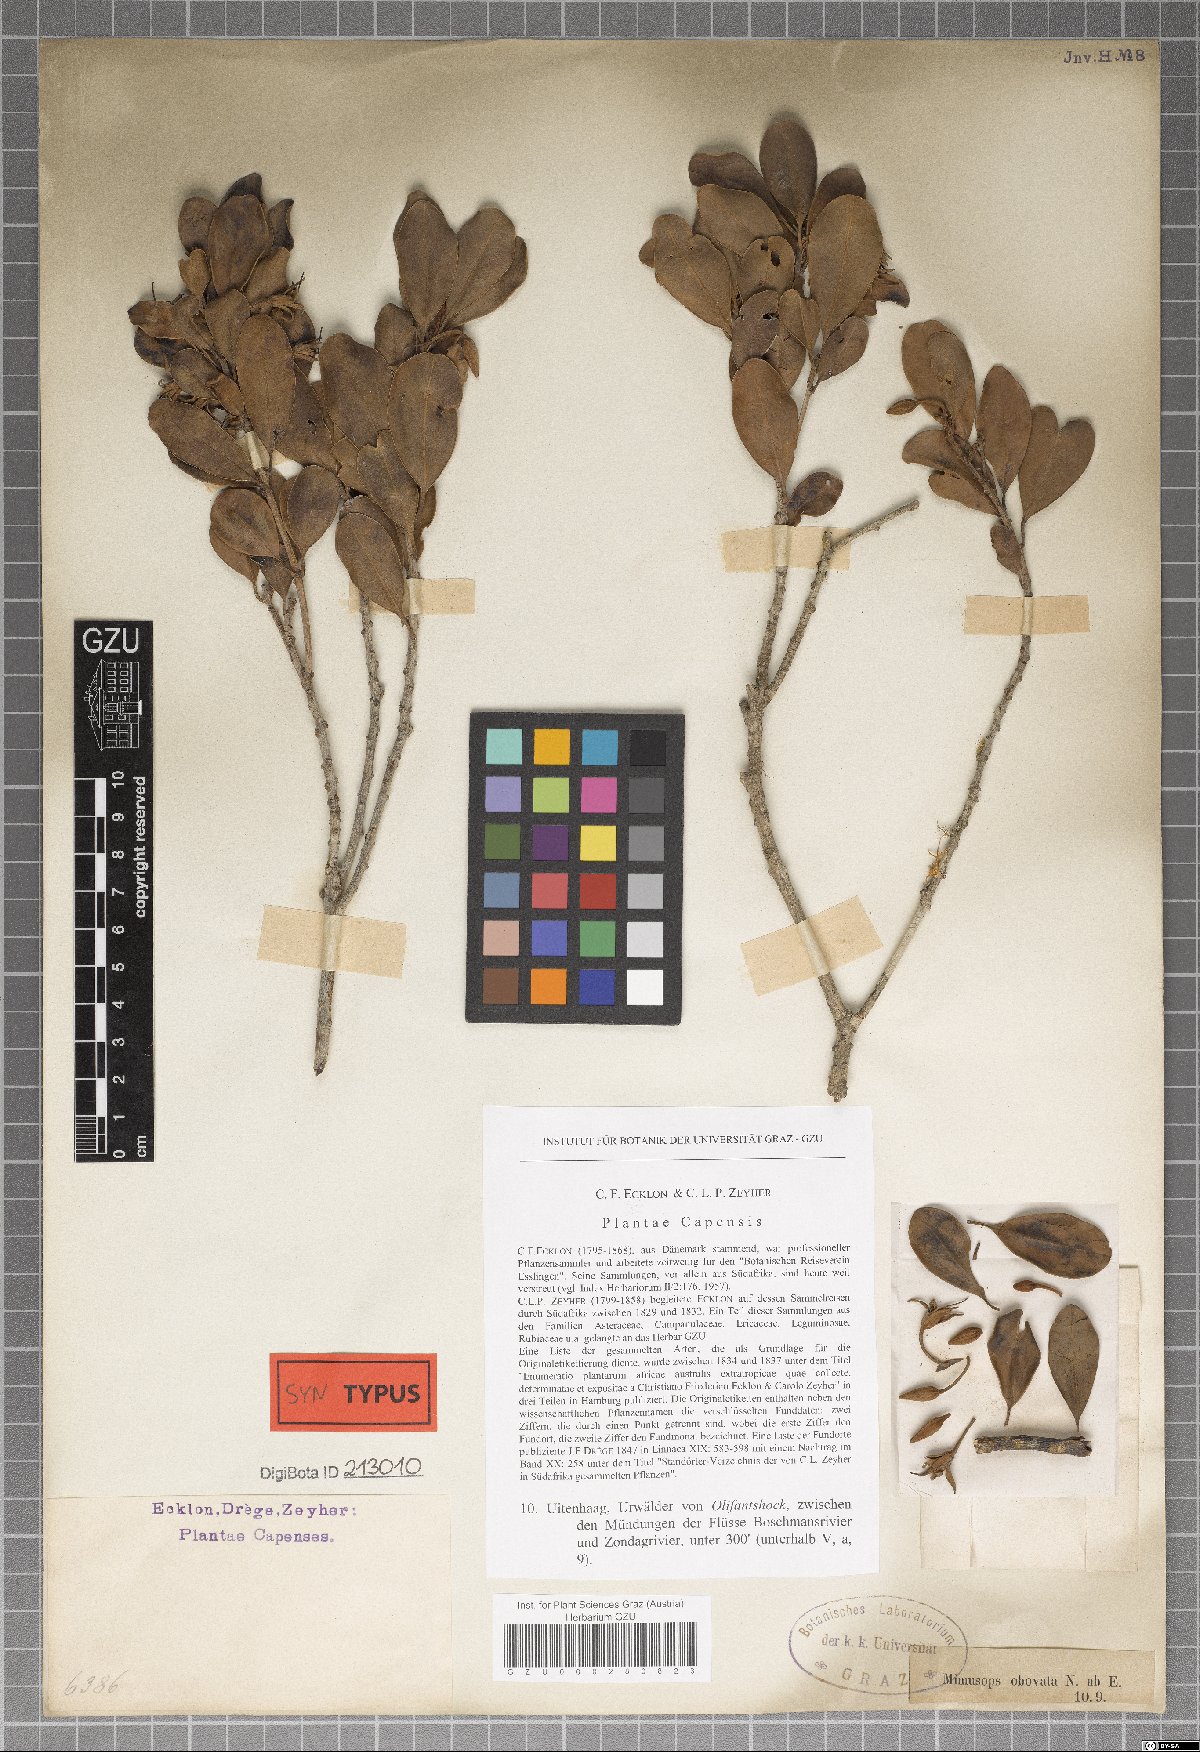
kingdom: Plantae
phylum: Tracheophyta
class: Magnoliopsida
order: Ericales
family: Sapotaceae
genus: Mimusops
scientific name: Mimusops obovata
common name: Red milkwood
